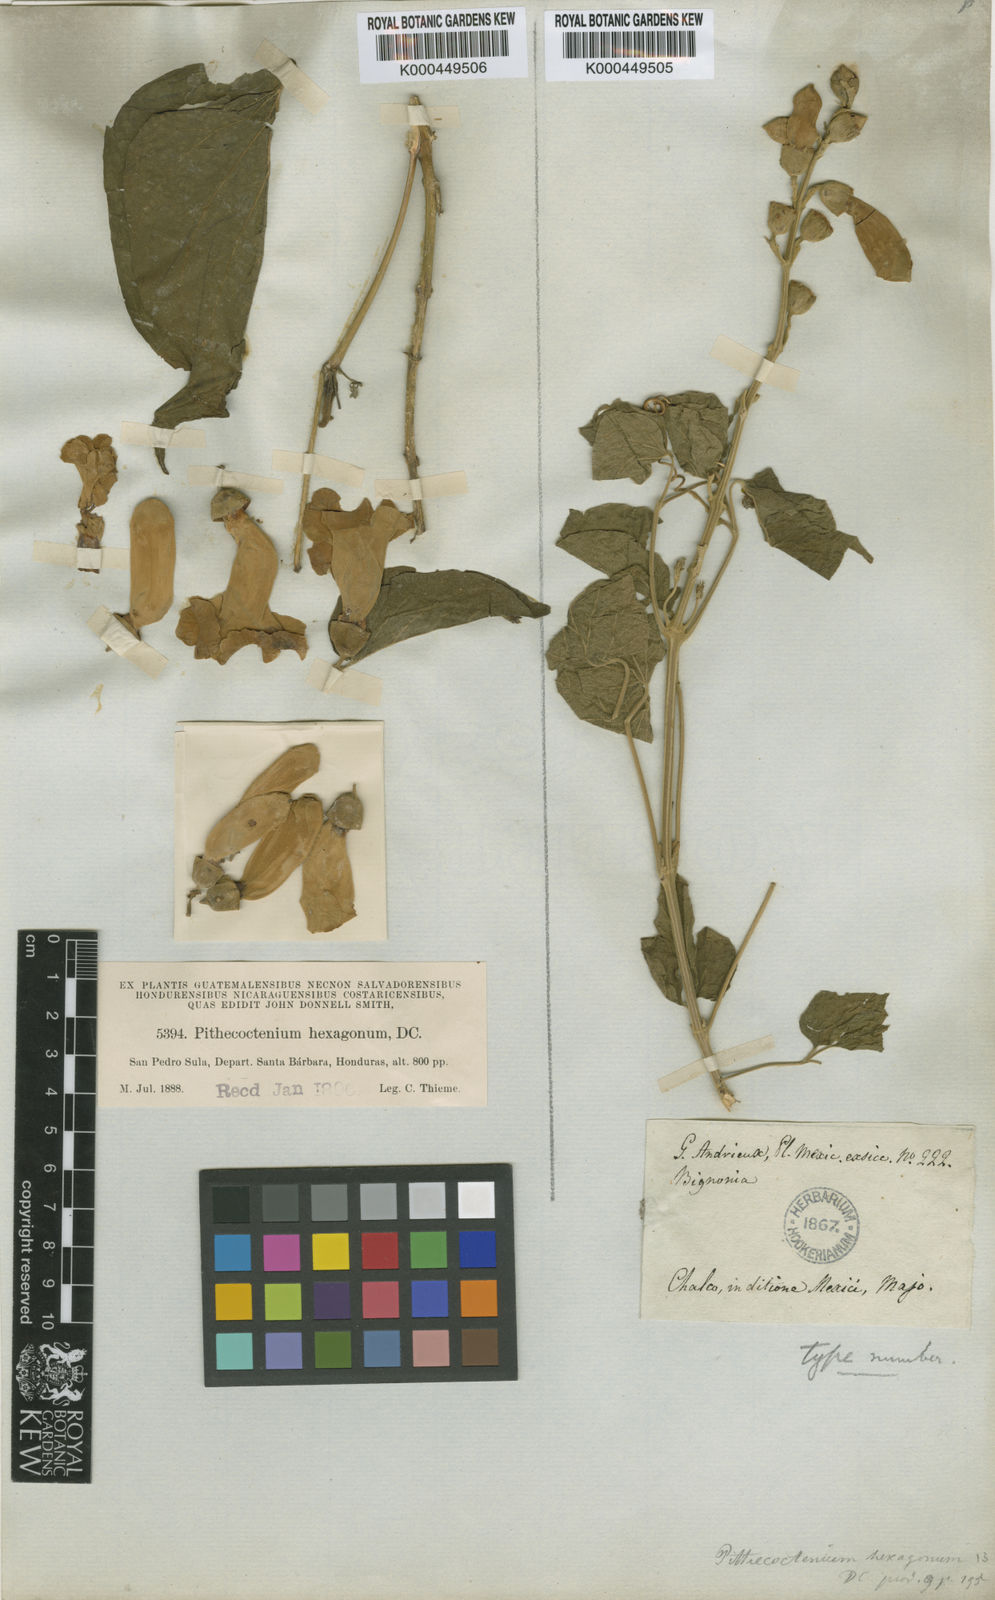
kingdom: Plantae
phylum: Tracheophyta
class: Magnoliopsida
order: Lamiales
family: Bignoniaceae
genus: Amphilophium
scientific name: Amphilophium crucigerum
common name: Monkey comb
